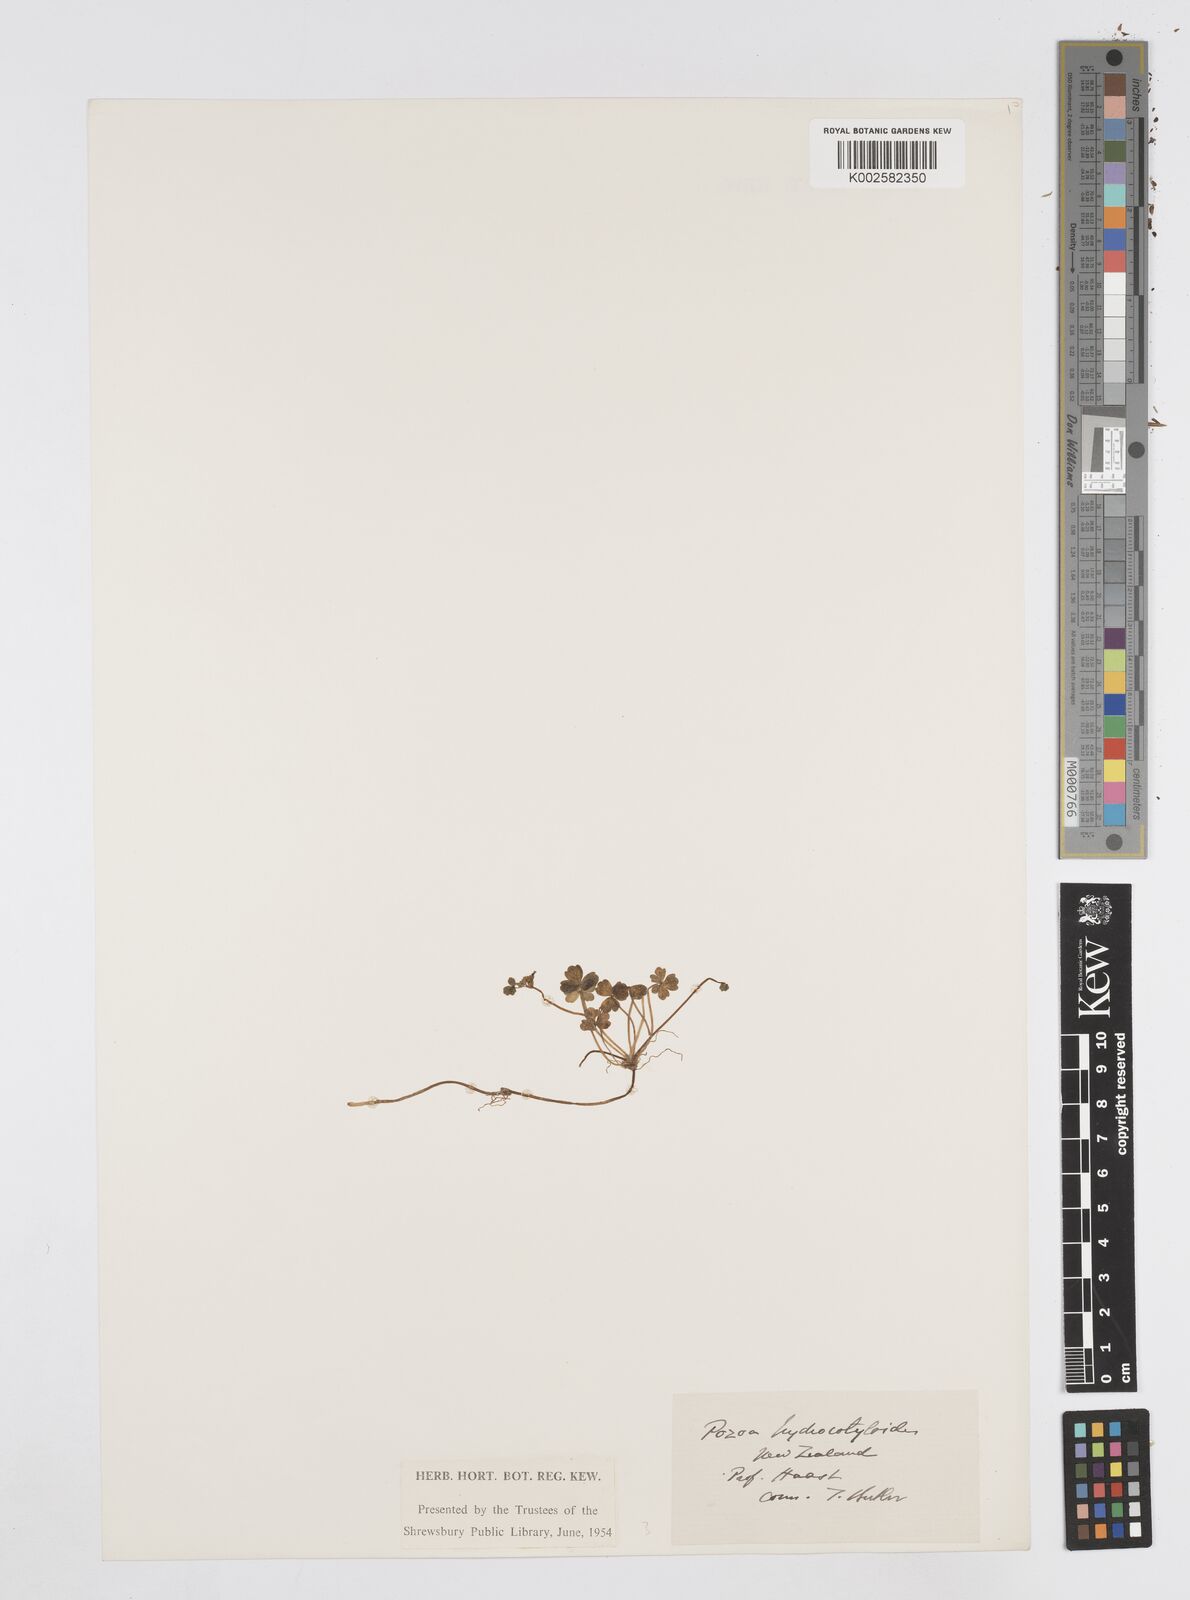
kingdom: Plantae
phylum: Tracheophyta
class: Magnoliopsida
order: Apiales
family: Apiaceae
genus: Azorella
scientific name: Azorella hydrocotyloides
